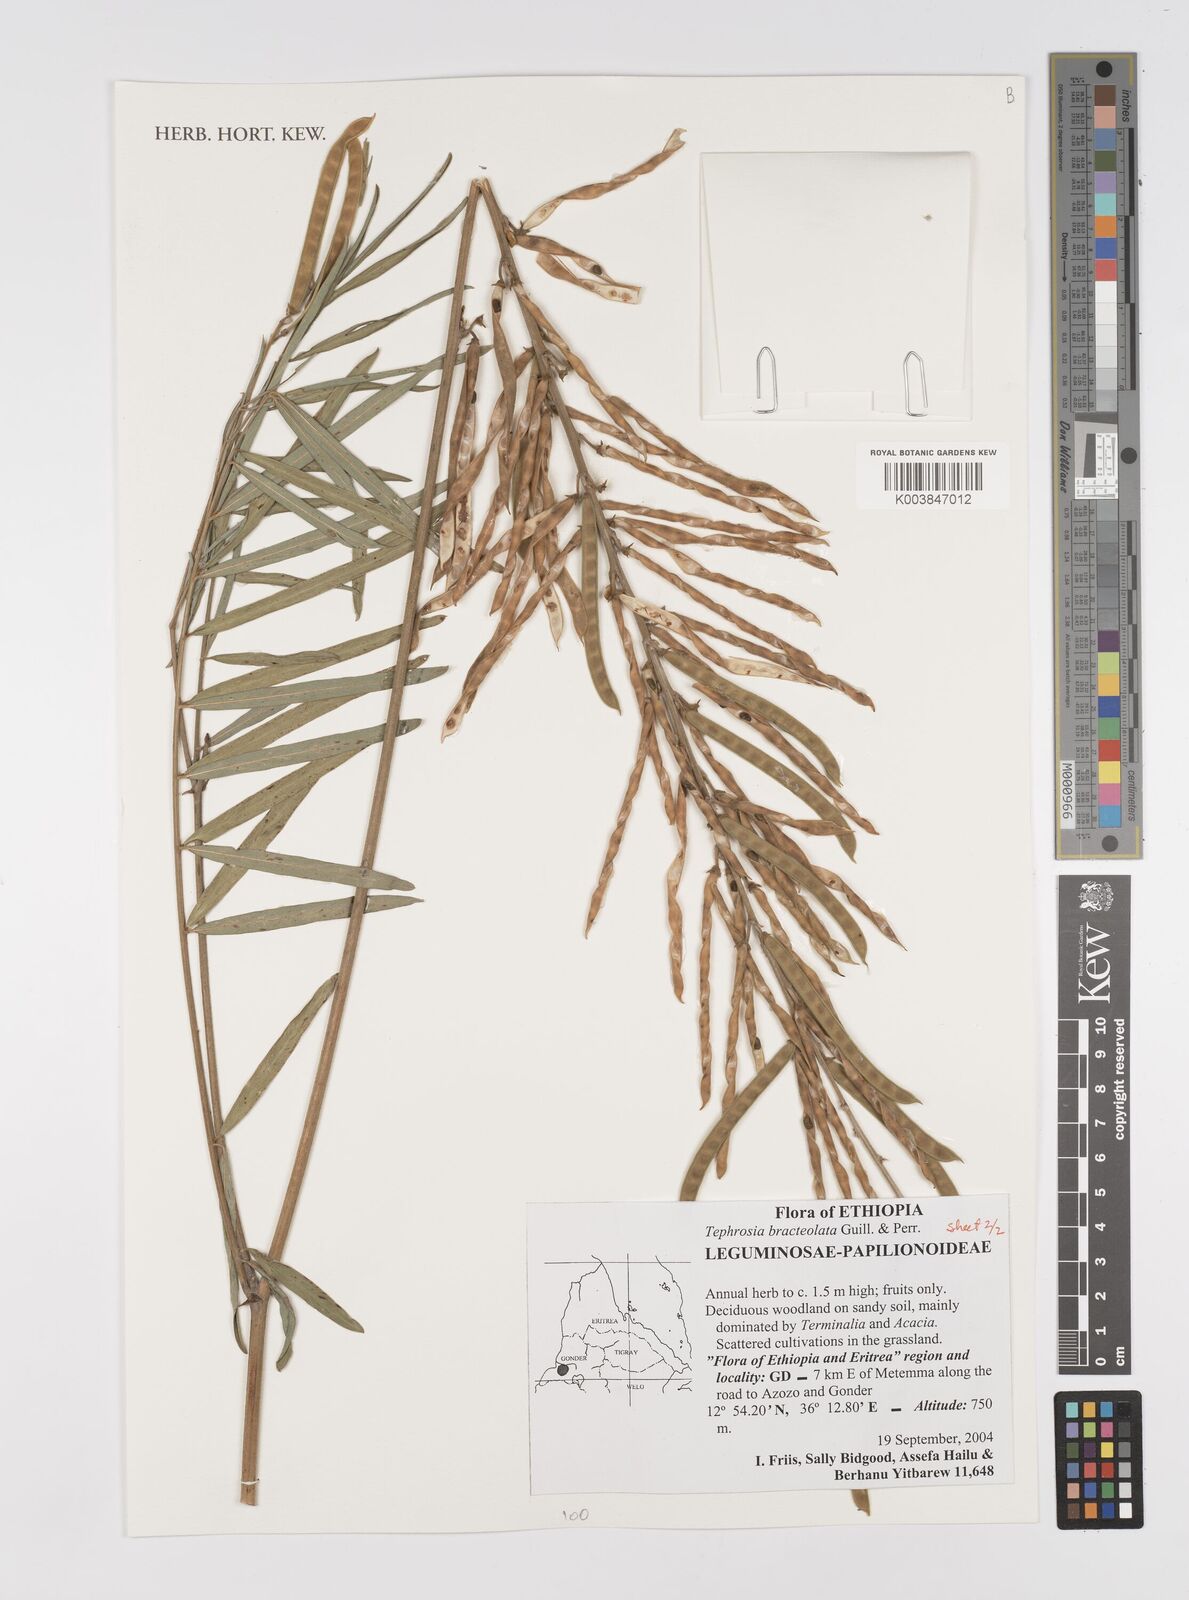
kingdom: Plantae
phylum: Tracheophyta
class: Magnoliopsida
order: Fabales
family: Fabaceae
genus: Tephrosia
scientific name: Tephrosia bracteolata
